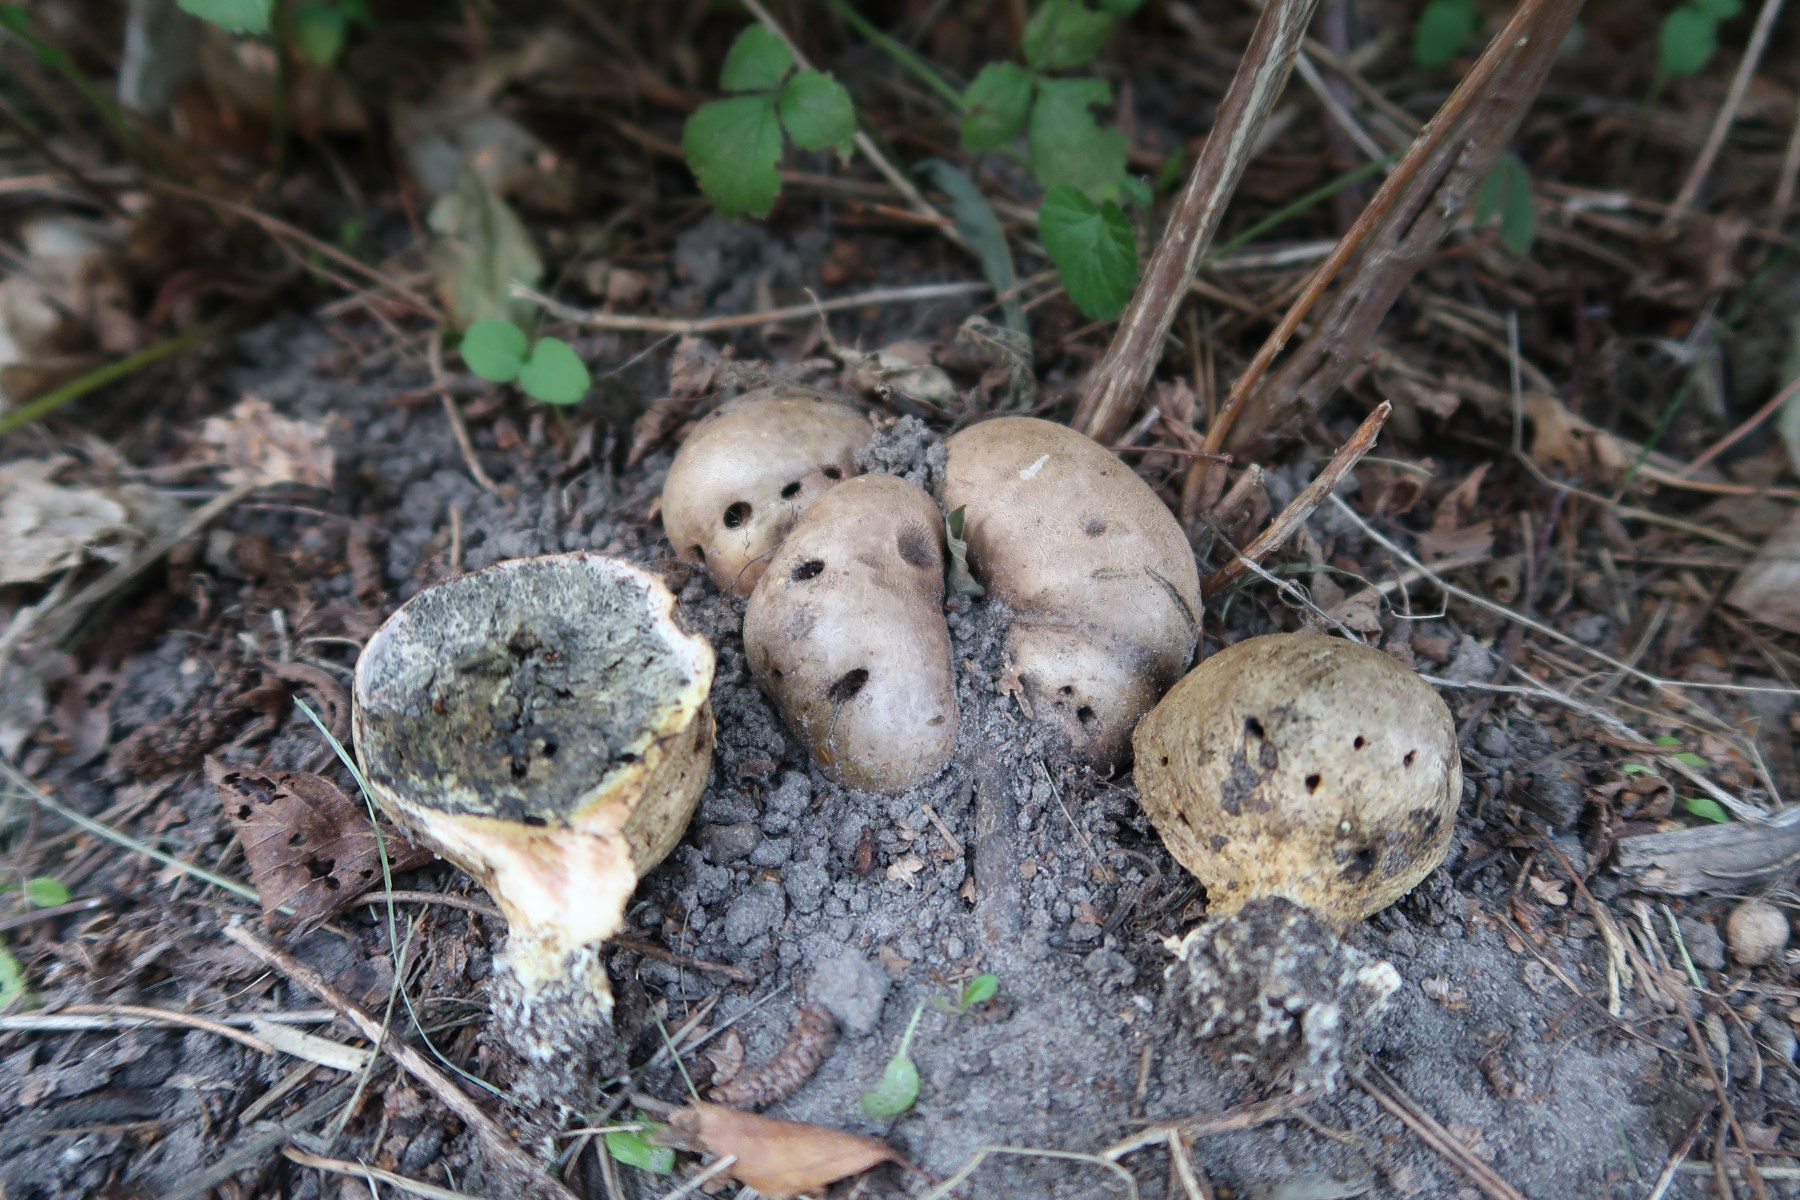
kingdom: Fungi
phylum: Basidiomycota
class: Agaricomycetes
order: Boletales
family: Sclerodermataceae
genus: Scleroderma
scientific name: Scleroderma bovista
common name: bovist-bruskbold
